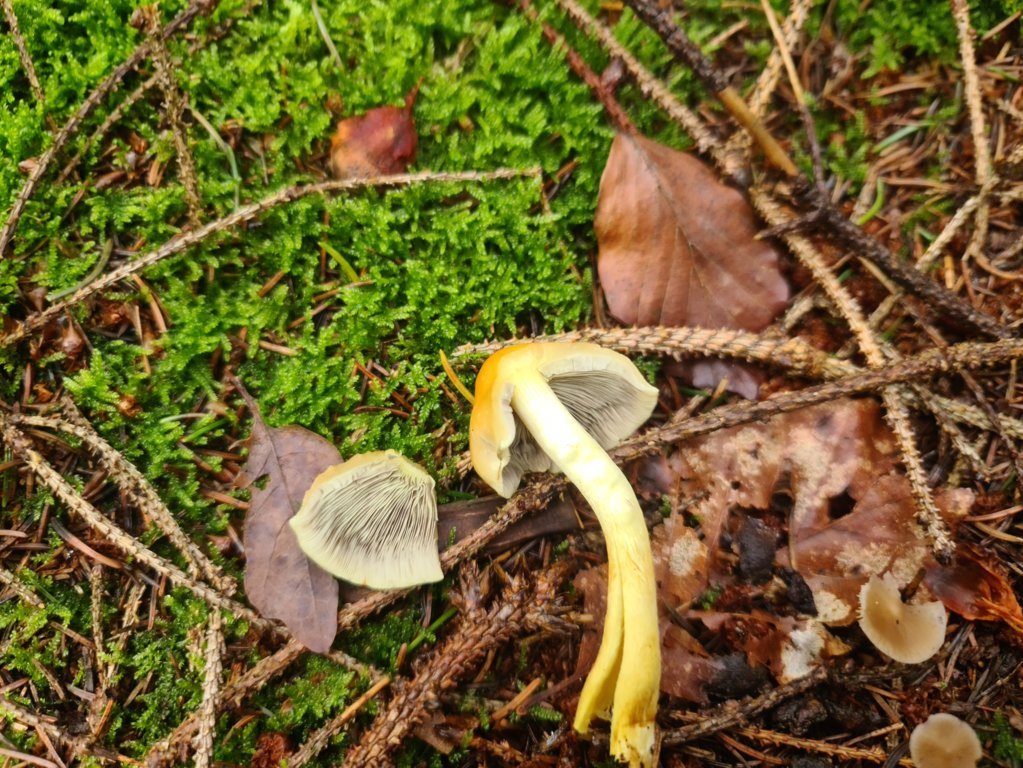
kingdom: Fungi
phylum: Basidiomycota
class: Agaricomycetes
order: Agaricales
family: Strophariaceae
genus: Hypholoma
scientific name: Hypholoma fasciculare
